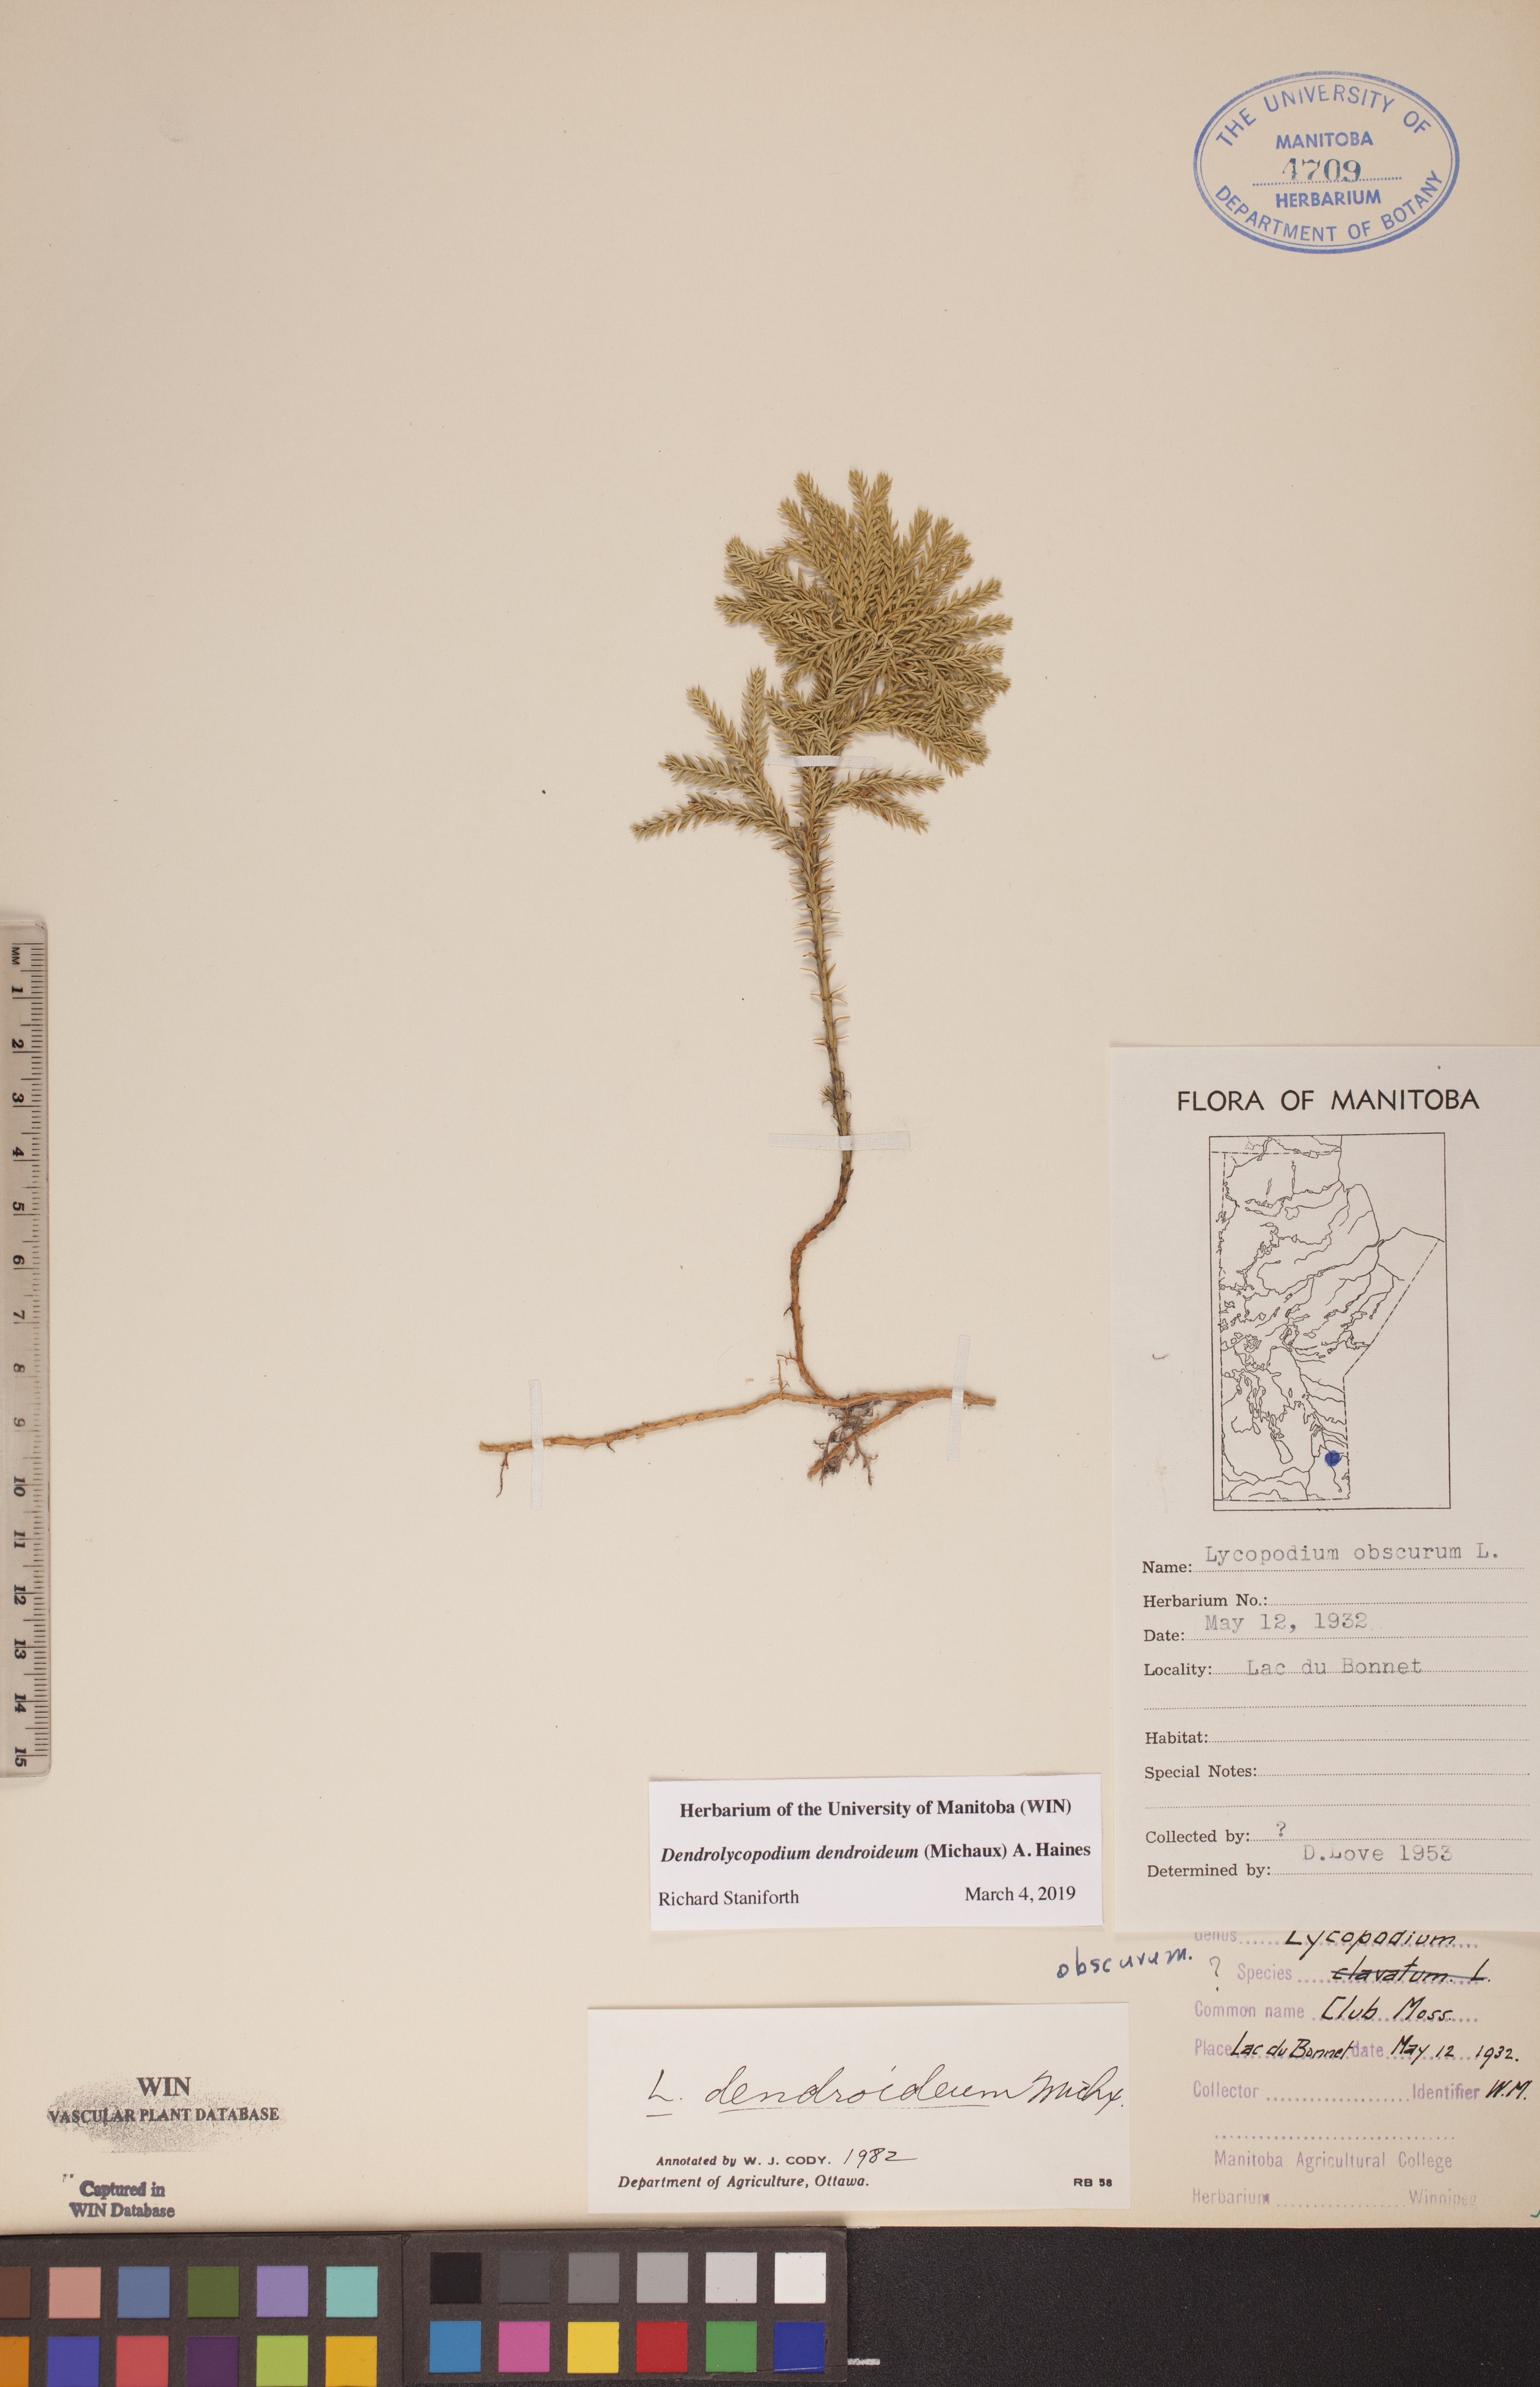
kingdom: Plantae
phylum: Tracheophyta
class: Lycopodiopsida
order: Lycopodiales
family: Lycopodiaceae
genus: Dendrolycopodium
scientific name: Dendrolycopodium dendroideum
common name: Northern tree-clubmoss
